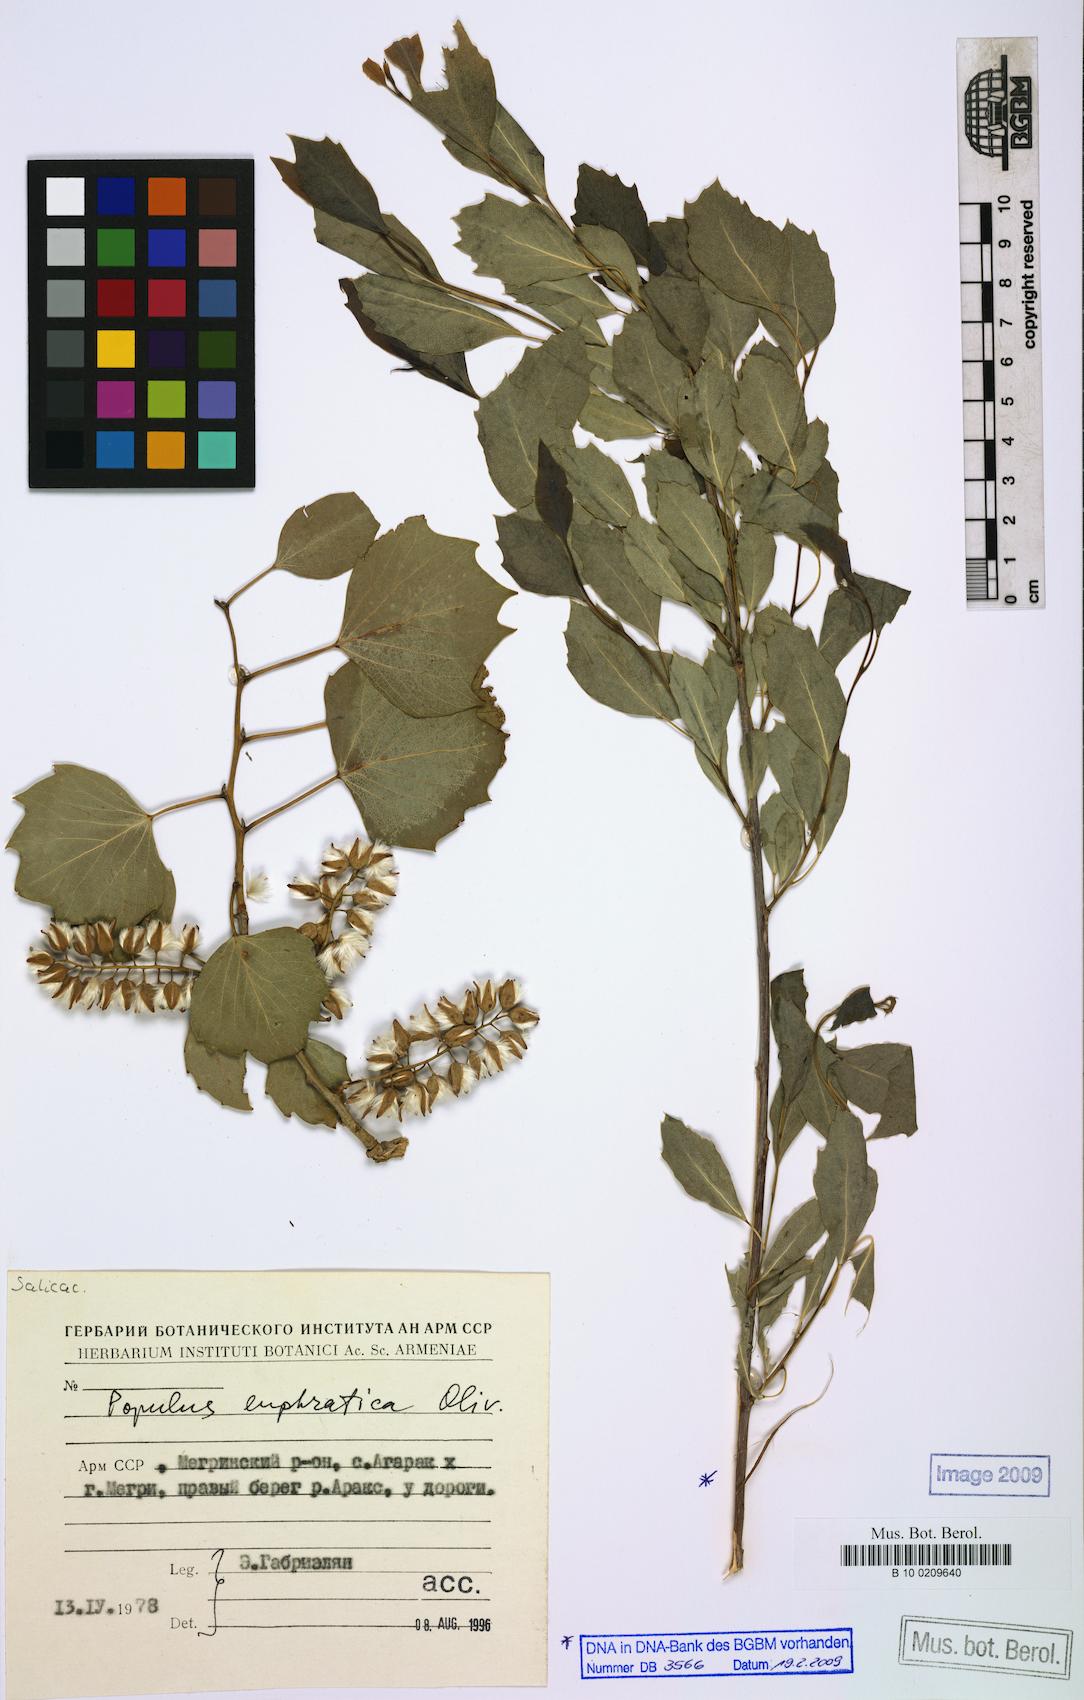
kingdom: Plantae
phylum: Tracheophyta
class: Magnoliopsida
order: Malpighiales
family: Salicaceae
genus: Populus
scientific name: Populus euphratica
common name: Euphrates poplar
